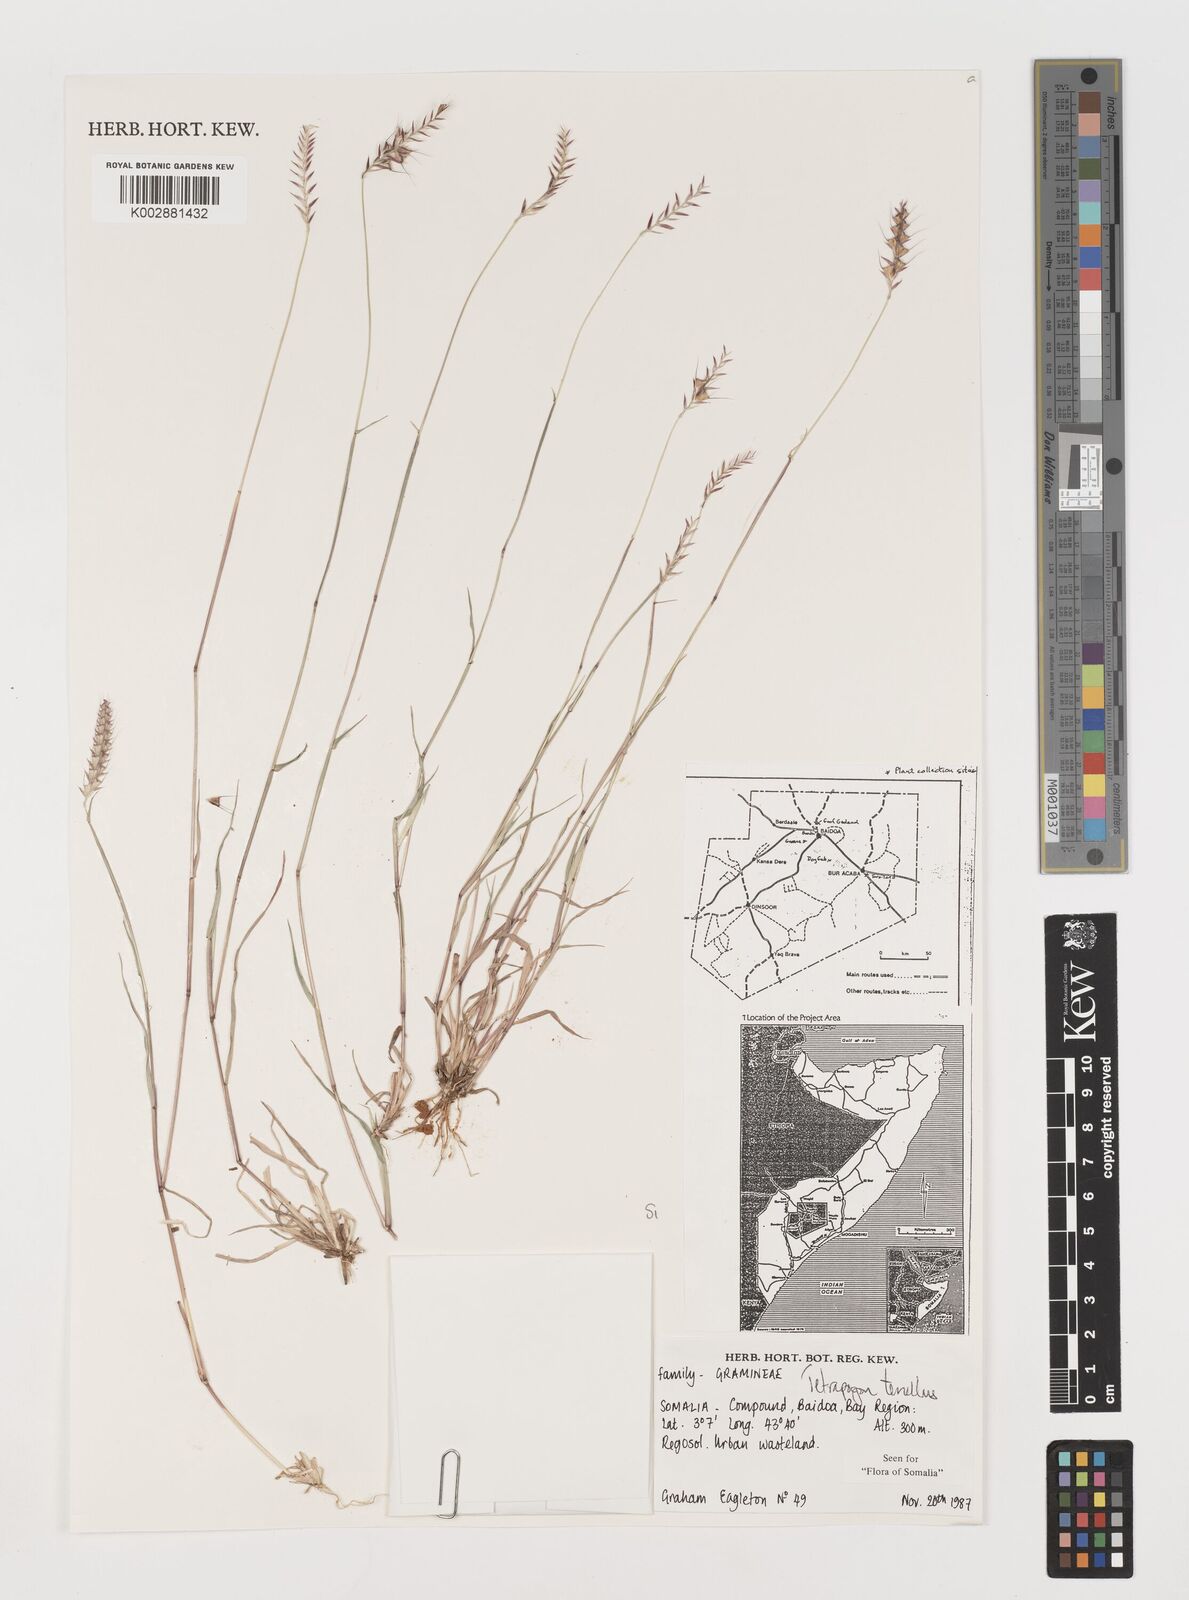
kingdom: Plantae
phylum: Tracheophyta
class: Liliopsida
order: Poales
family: Poaceae
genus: Tetrapogon
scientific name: Tetrapogon tenellus
